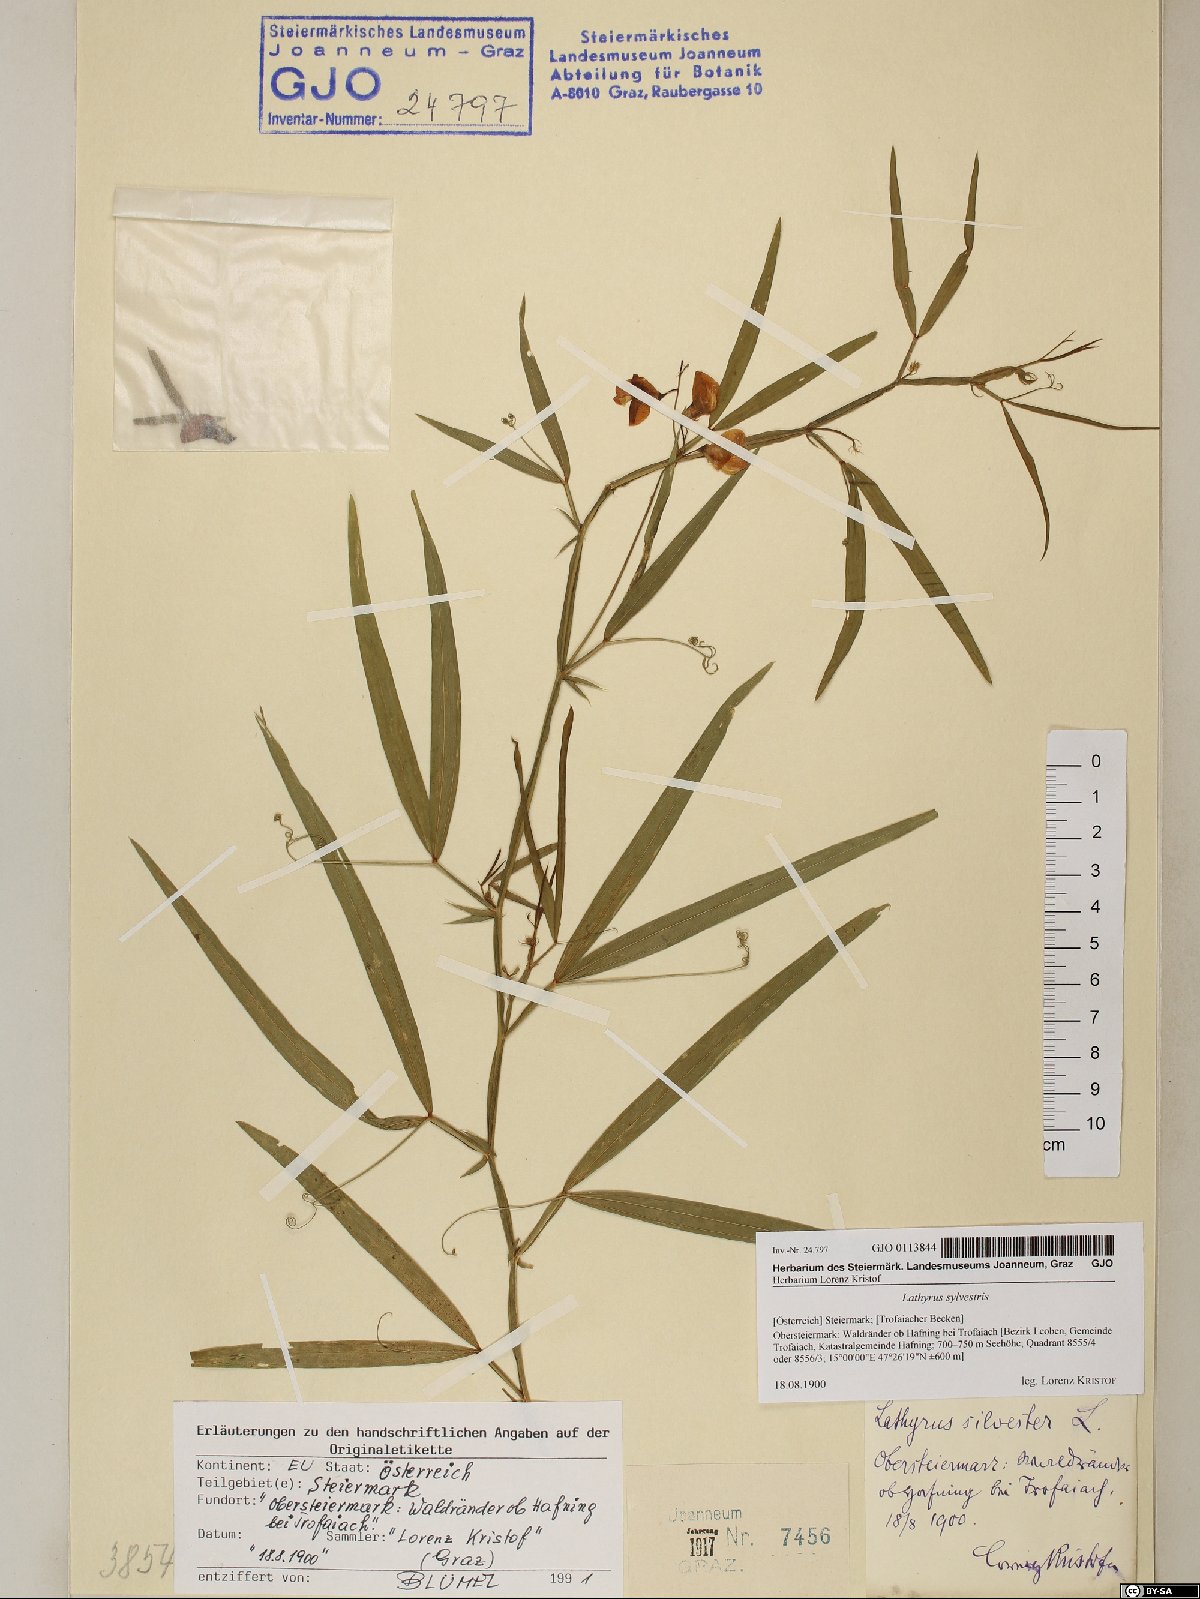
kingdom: Plantae
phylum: Tracheophyta
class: Magnoliopsida
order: Fabales
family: Fabaceae
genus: Lathyrus
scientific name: Lathyrus sylvestris
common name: Flat pea
